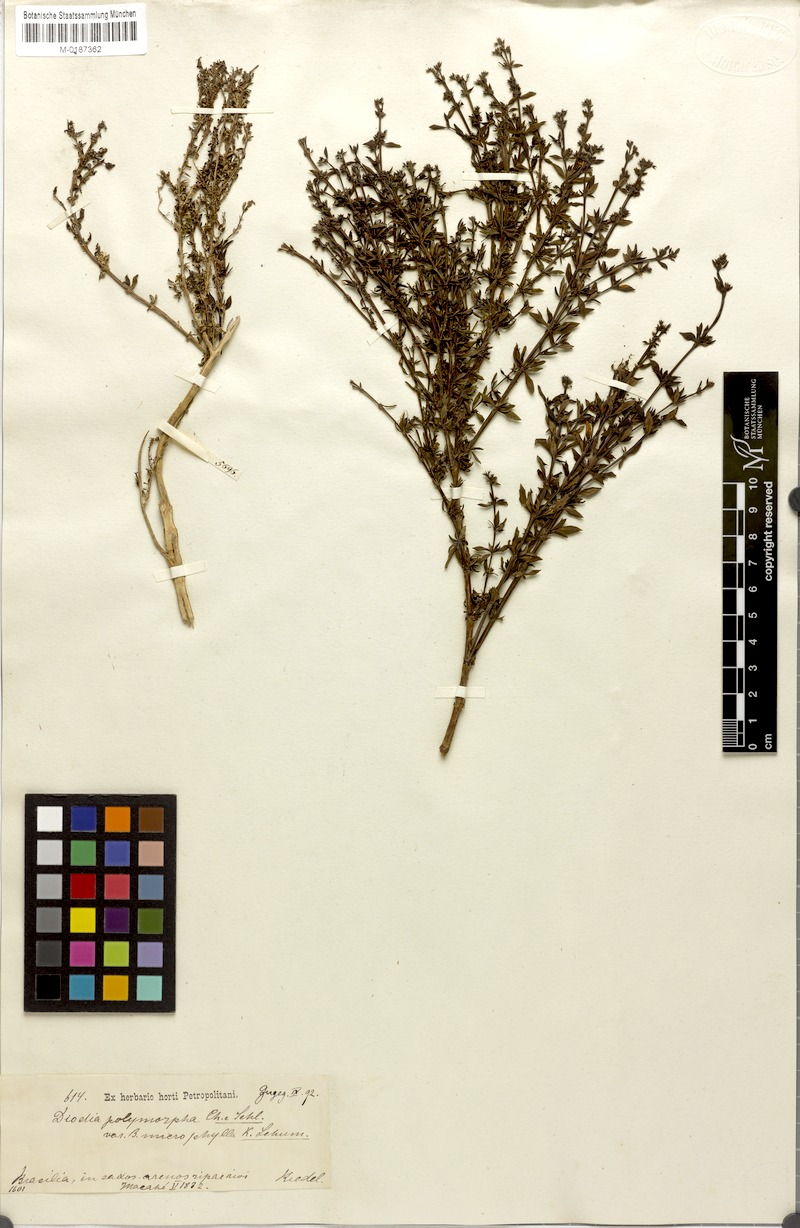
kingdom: Plantae
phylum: Tracheophyta
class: Magnoliopsida
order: Gentianales
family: Rubiaceae
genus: Galianthe
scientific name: Galianthe brasiliensis
